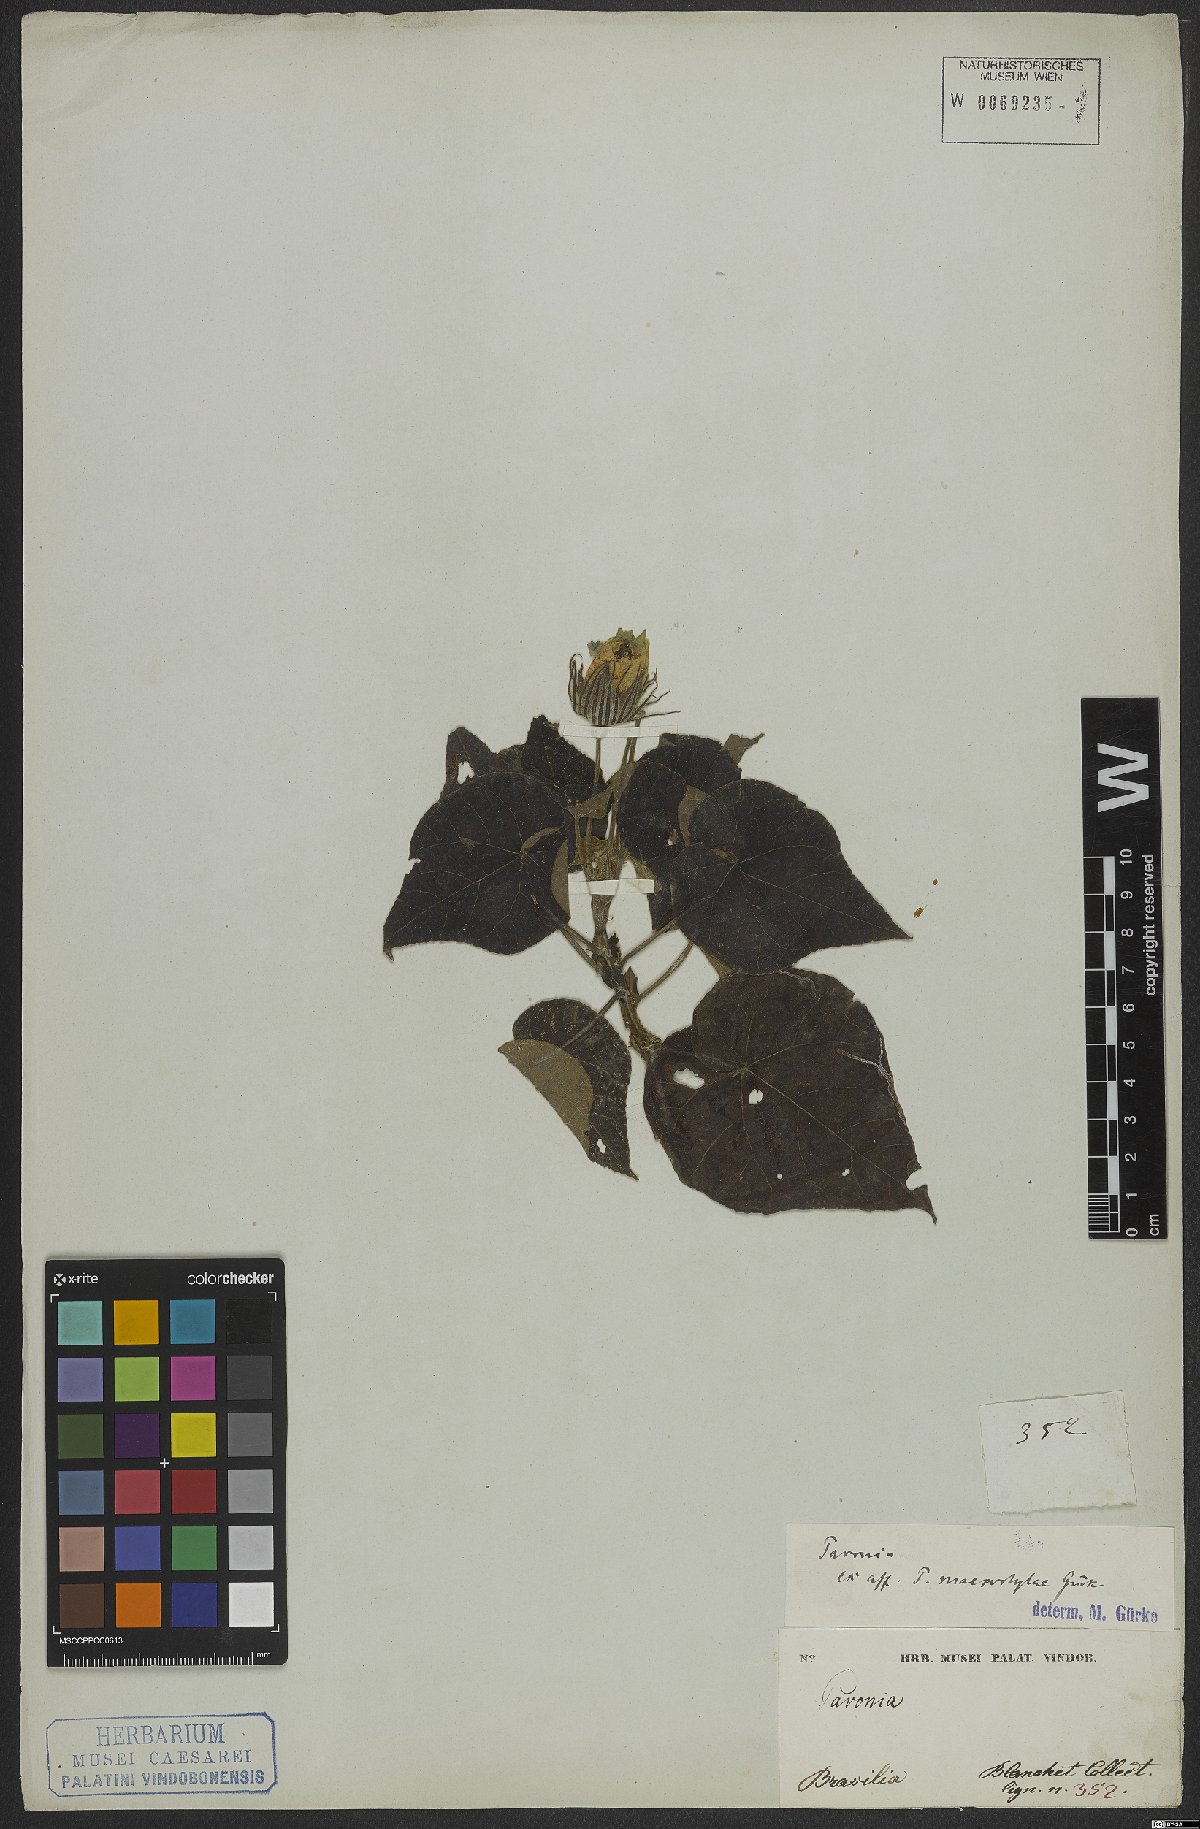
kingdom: Plantae
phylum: Tracheophyta
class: Magnoliopsida
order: Malvales
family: Malvaceae
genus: Pavonia
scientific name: Pavonia dregei
